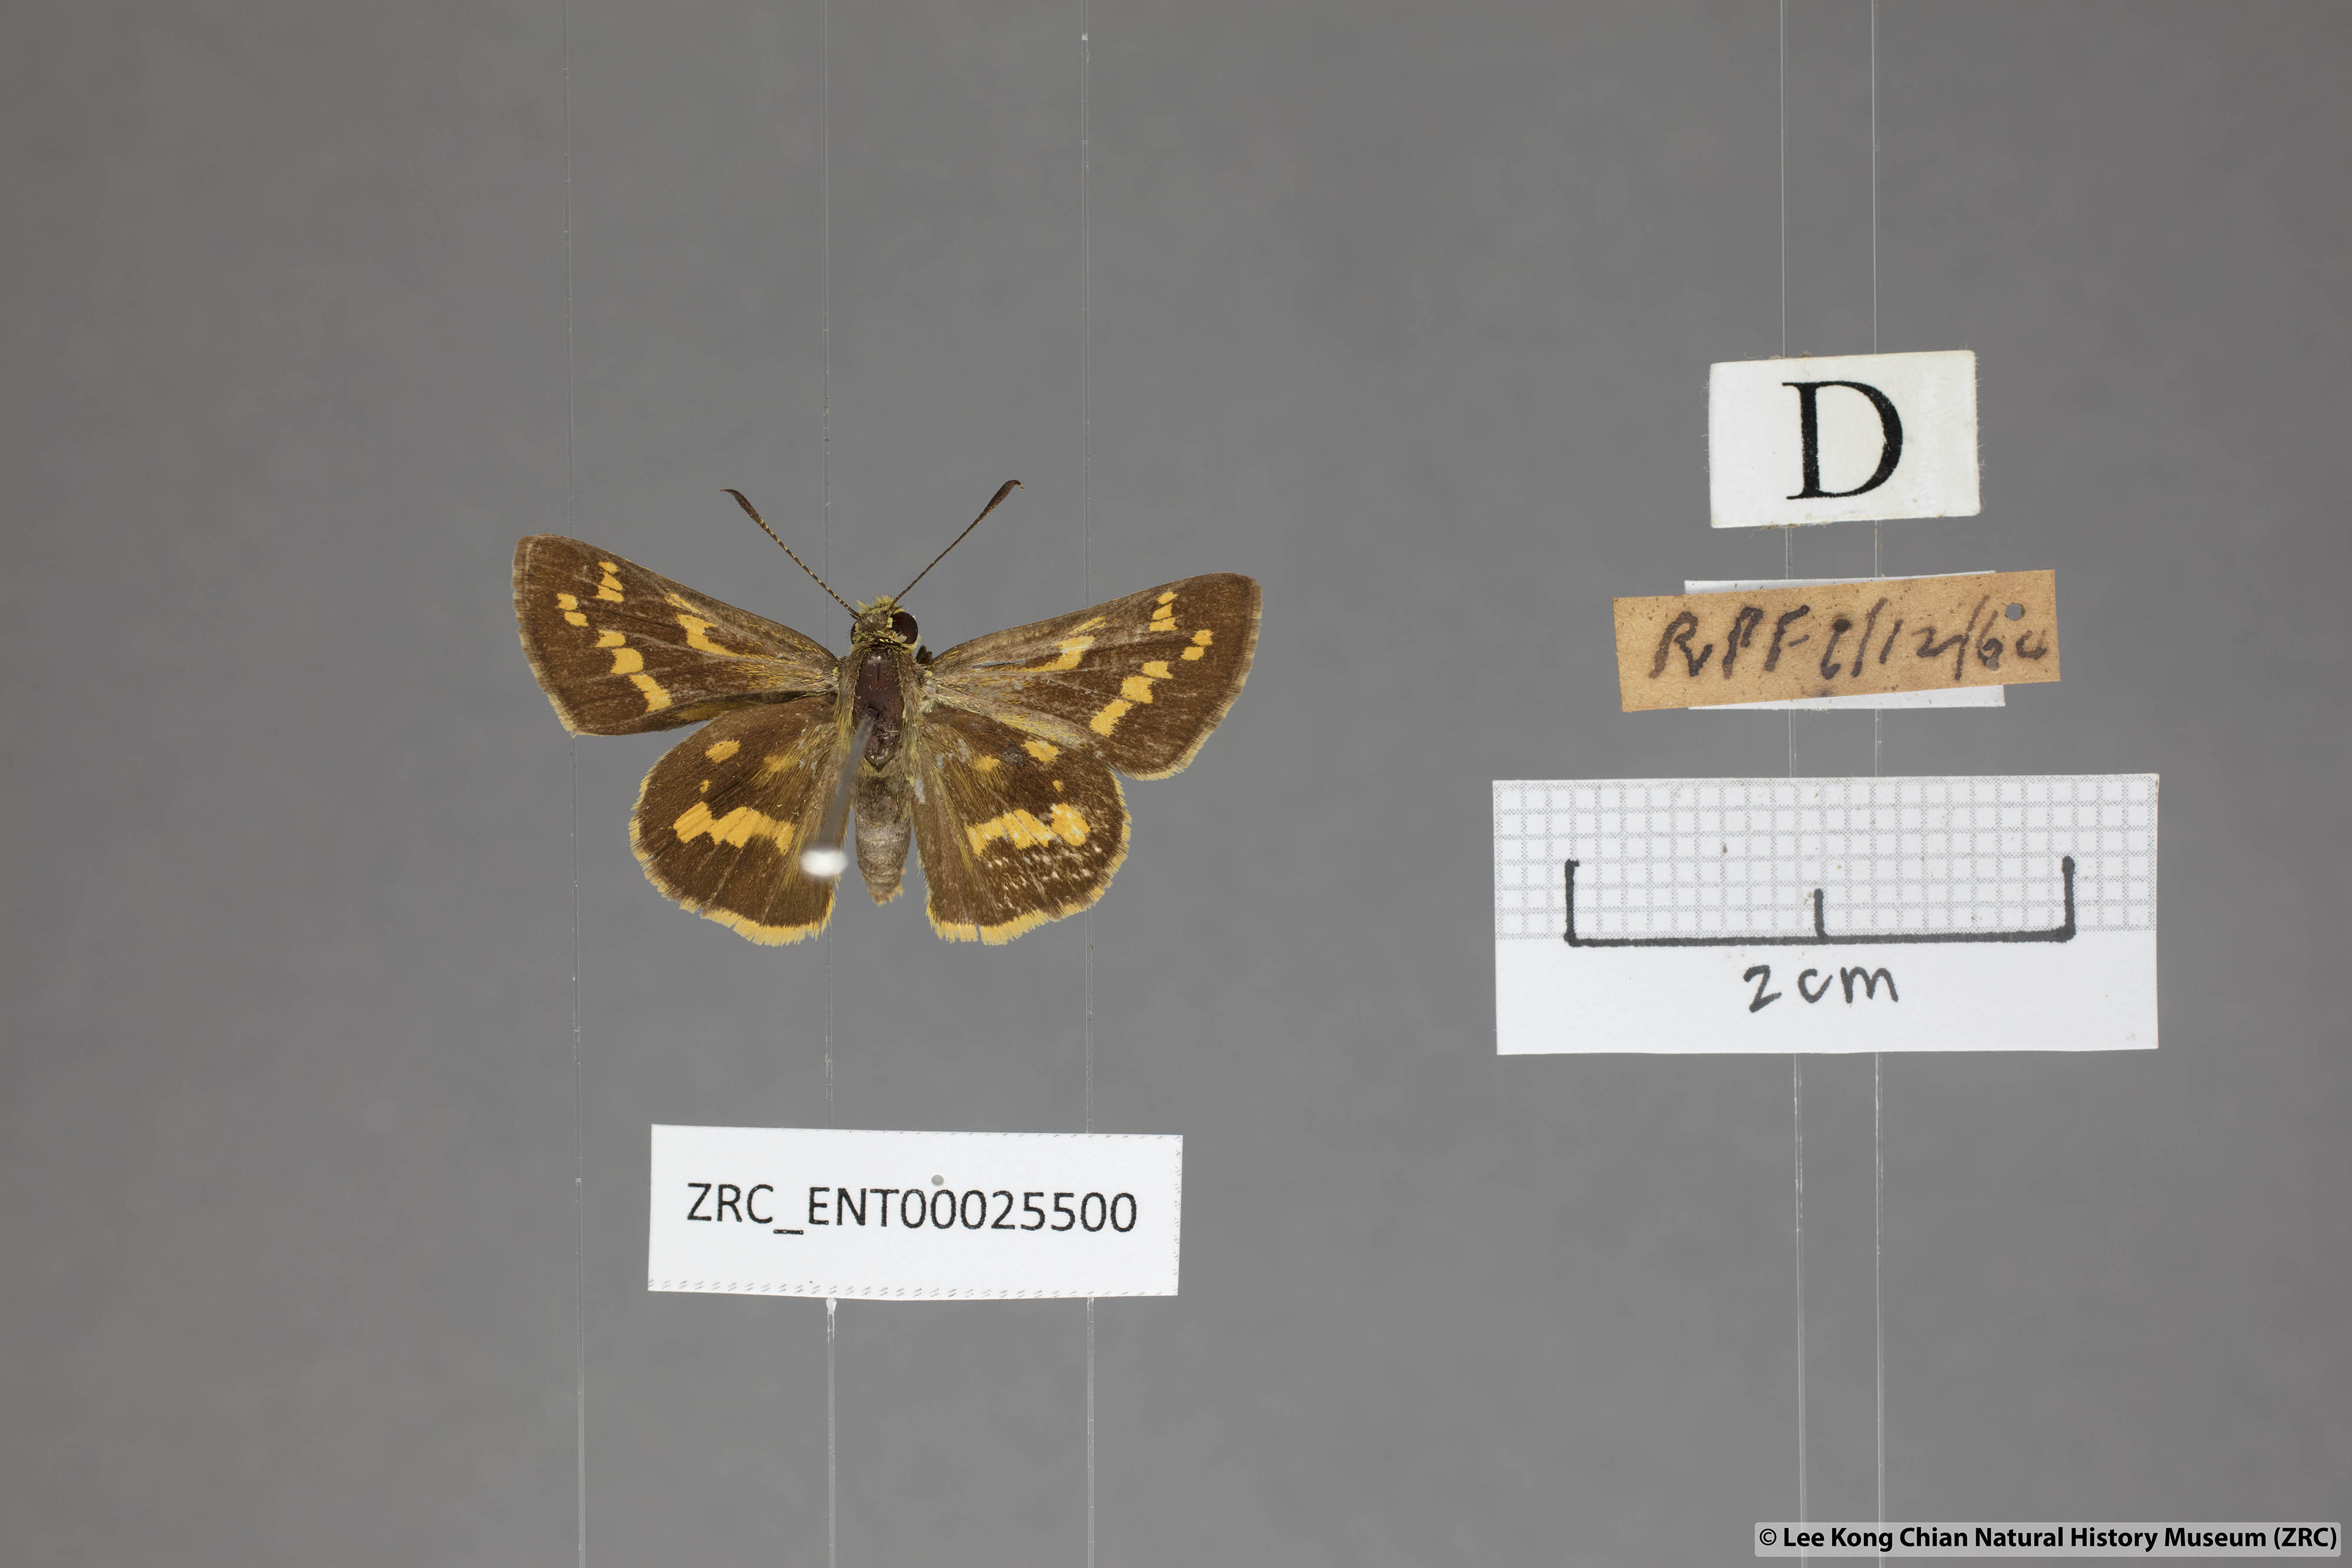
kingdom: Animalia
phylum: Arthropoda
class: Insecta
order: Lepidoptera
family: Hesperiidae
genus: Potanthus
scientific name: Potanthus trachala
